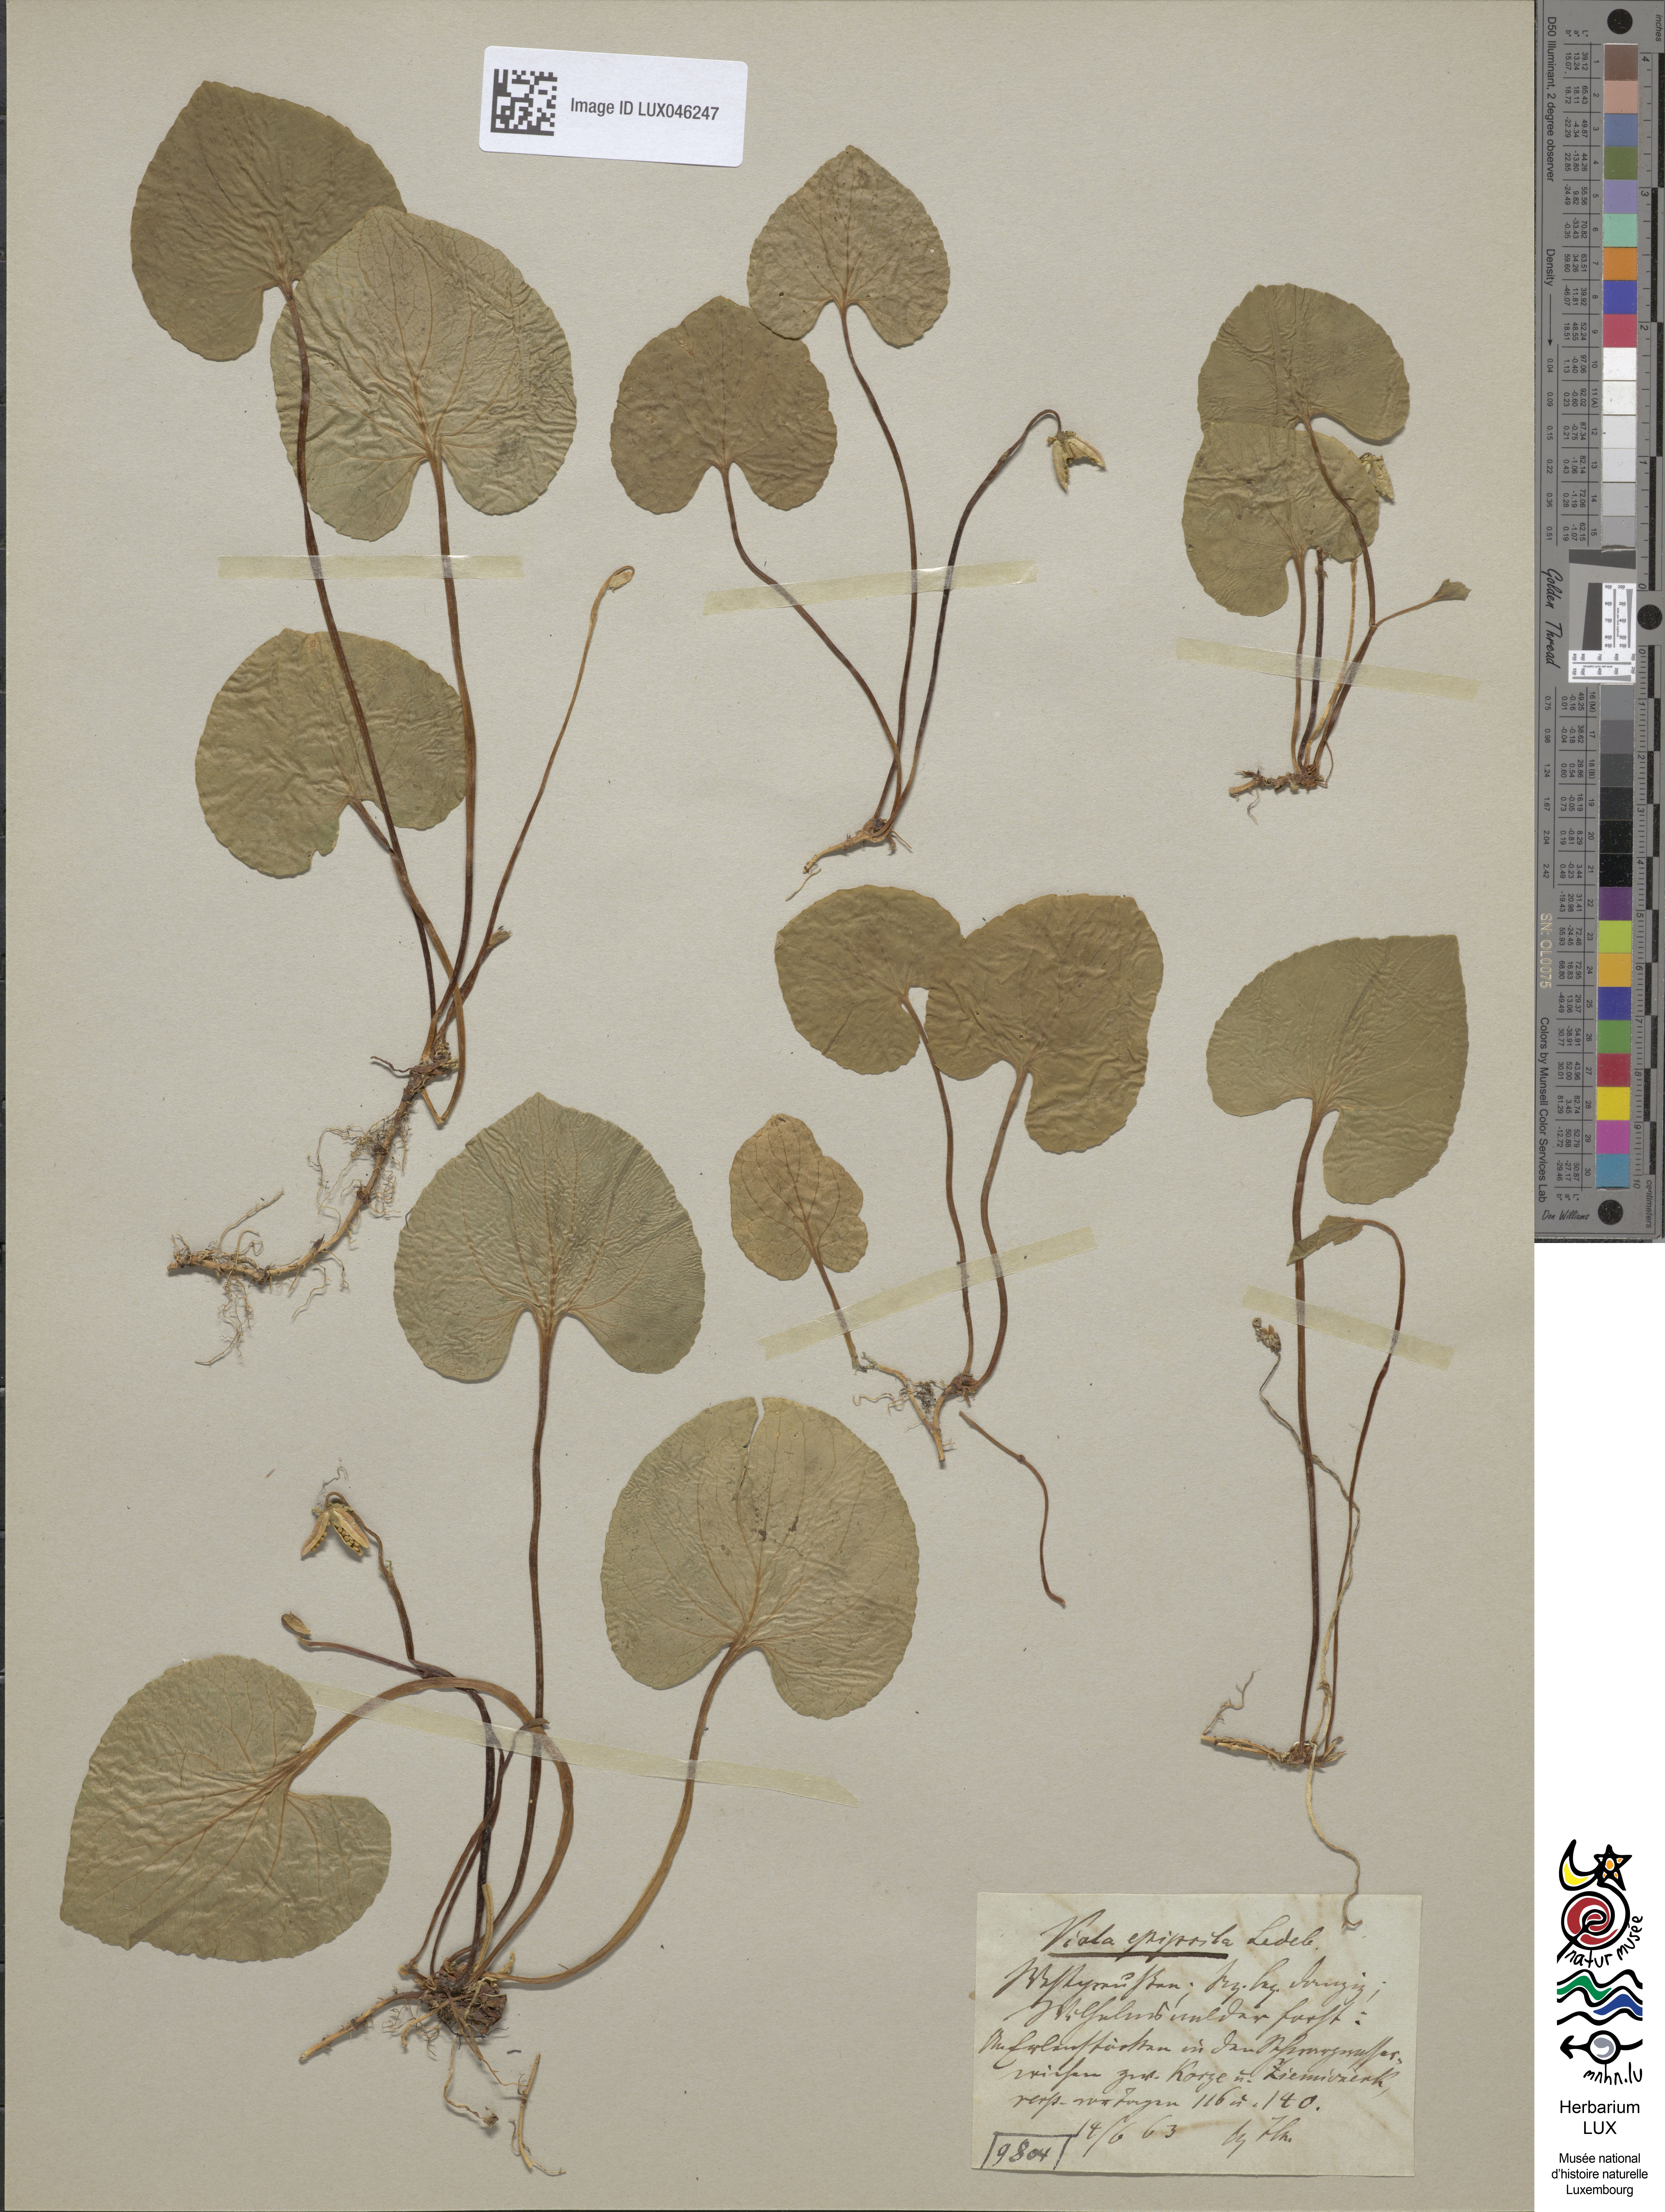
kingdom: Plantae
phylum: Tracheophyta
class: Magnoliopsida
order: Malpighiales
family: Violaceae
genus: Viola
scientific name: Viola epipsila
